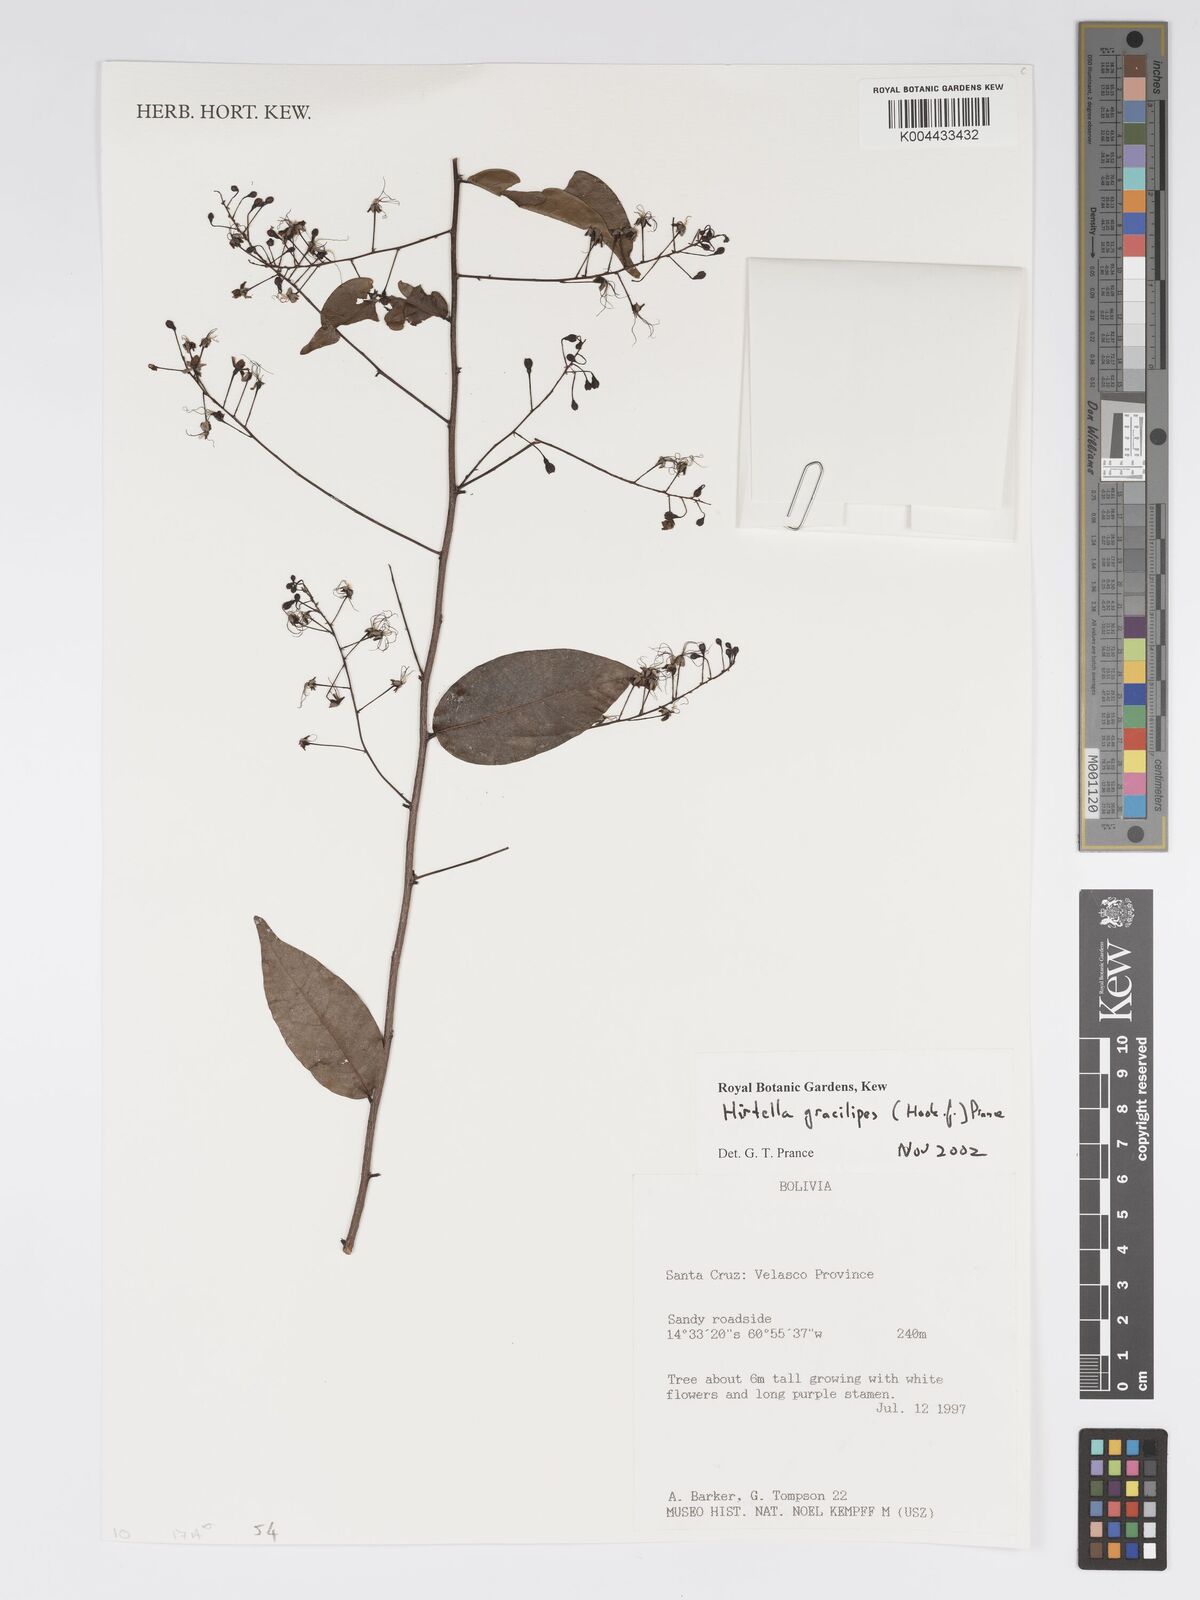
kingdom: Plantae
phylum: Tracheophyta
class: Magnoliopsida
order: Malpighiales
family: Chrysobalanaceae
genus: Hirtella
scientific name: Hirtella gracilipes
